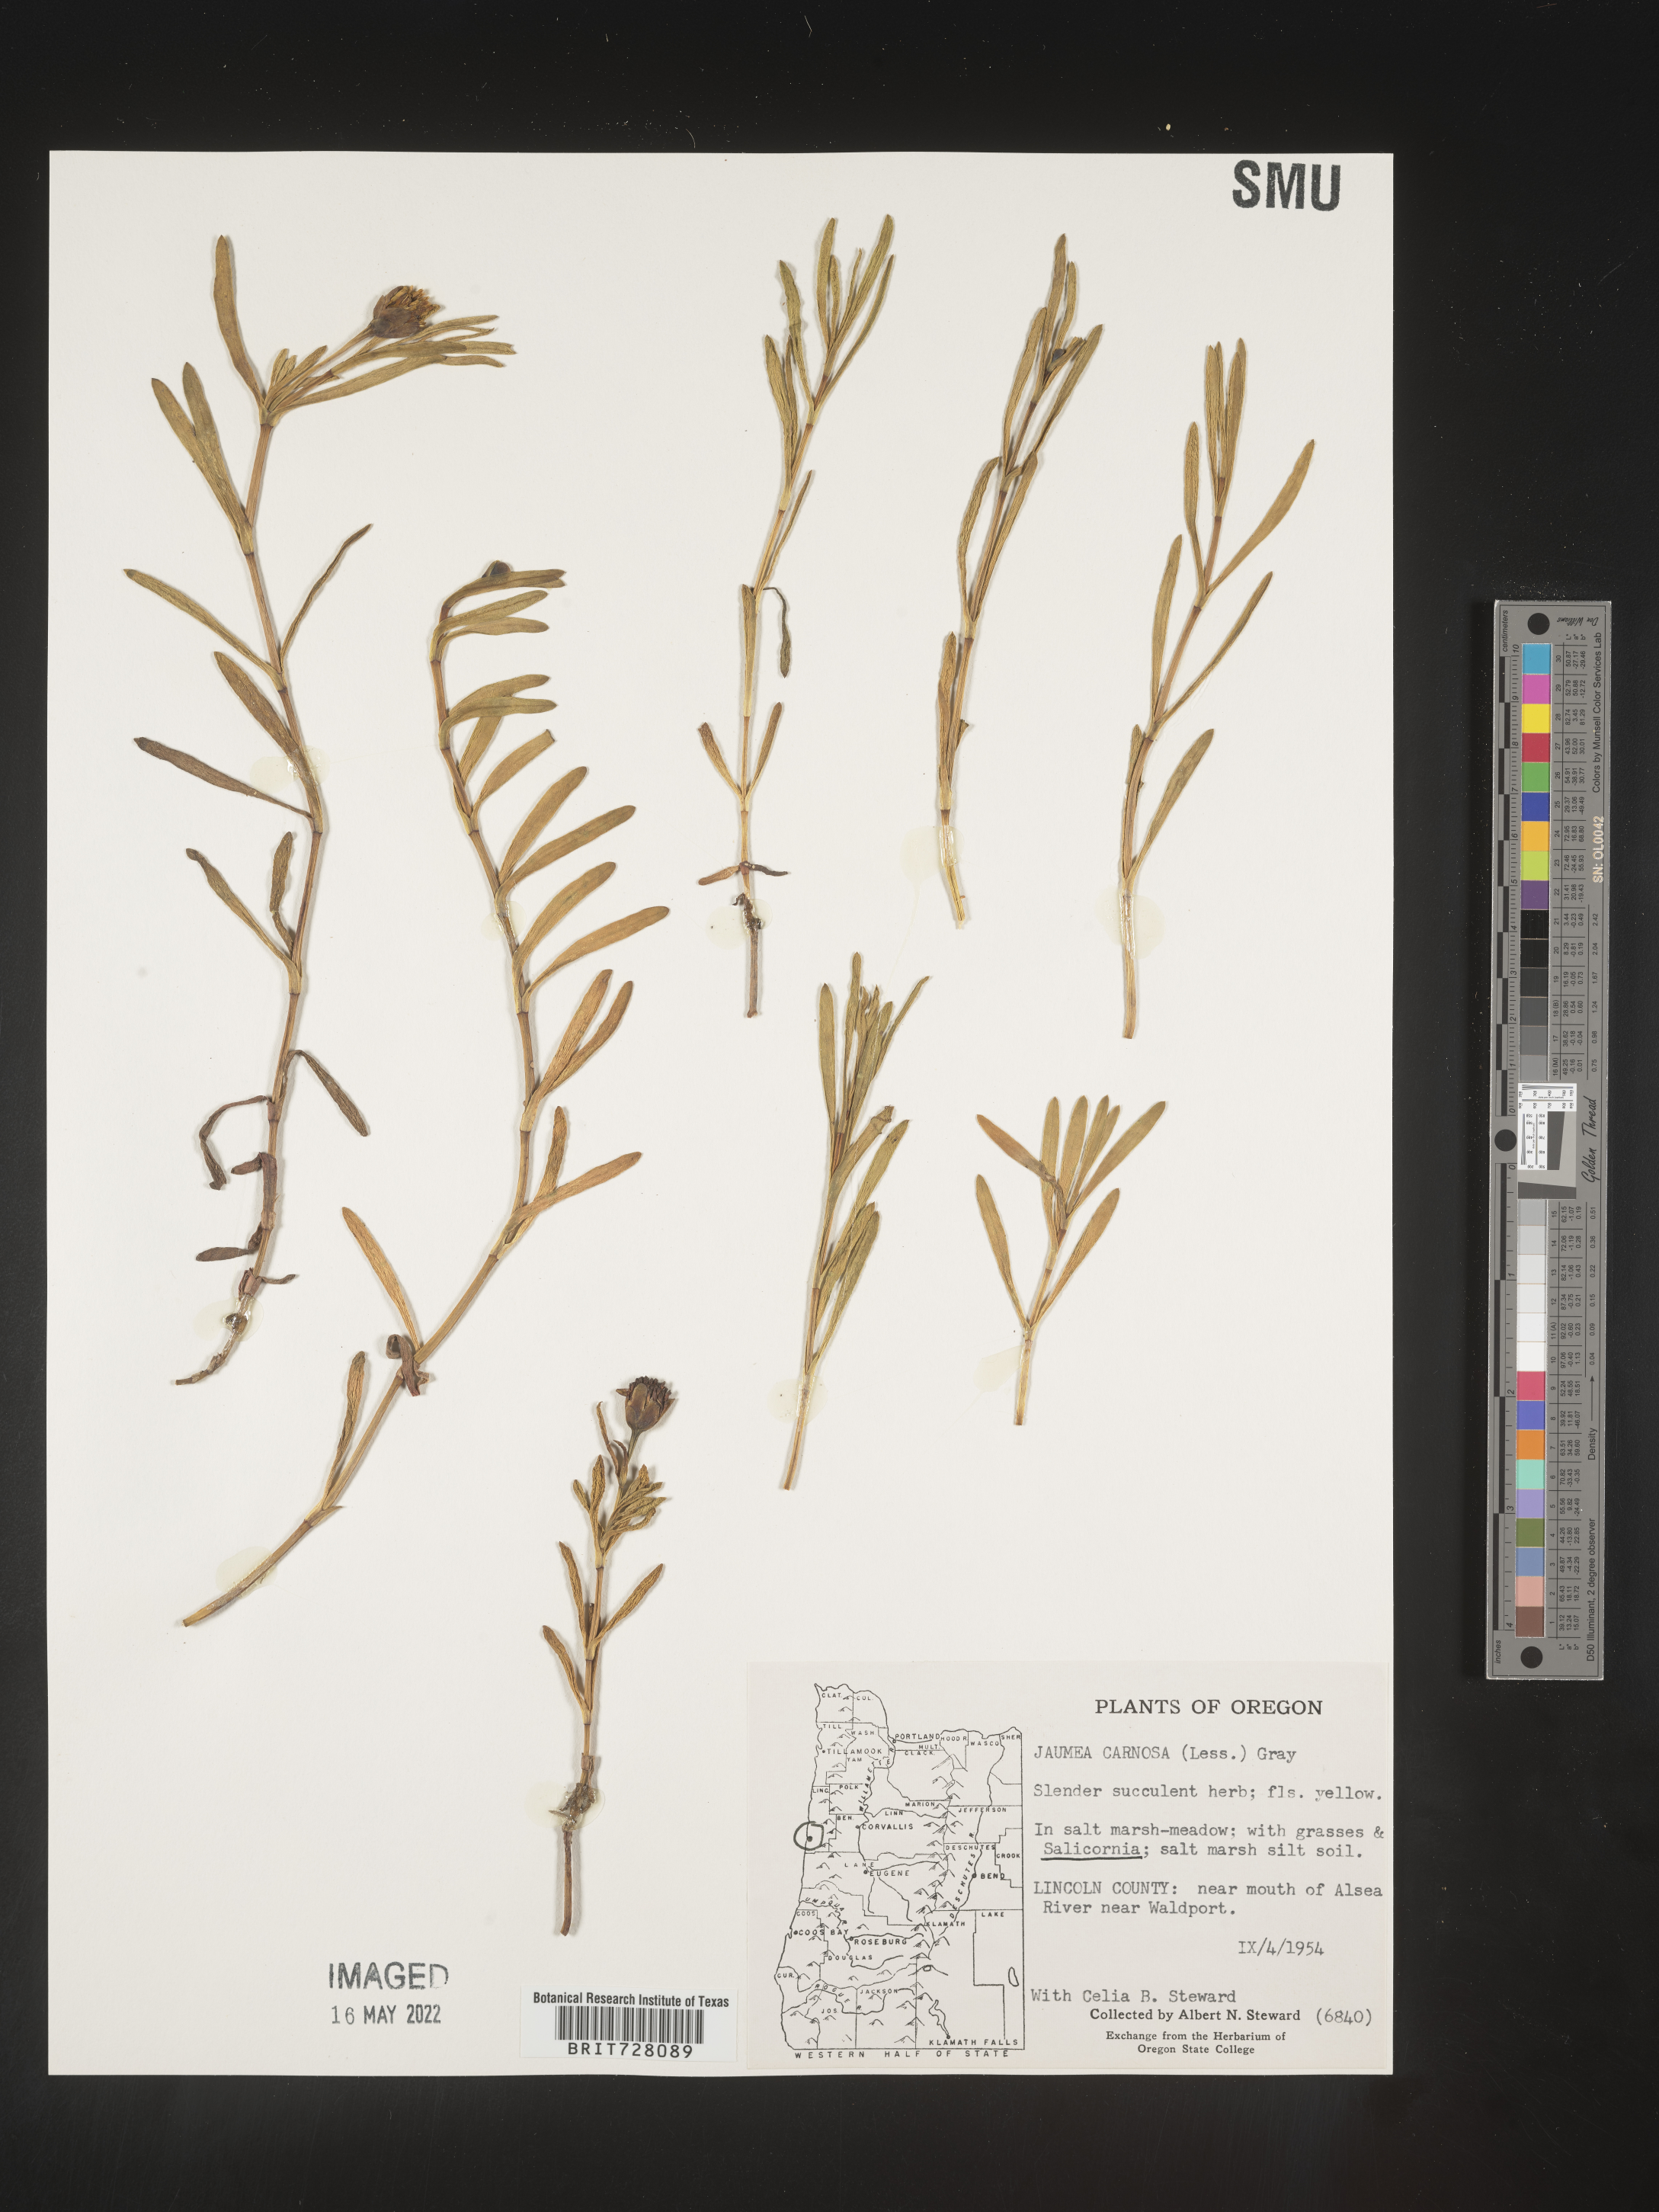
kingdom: Plantae
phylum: Tracheophyta
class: Magnoliopsida
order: Asterales
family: Asteraceae
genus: Jaumea
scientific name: Jaumea
